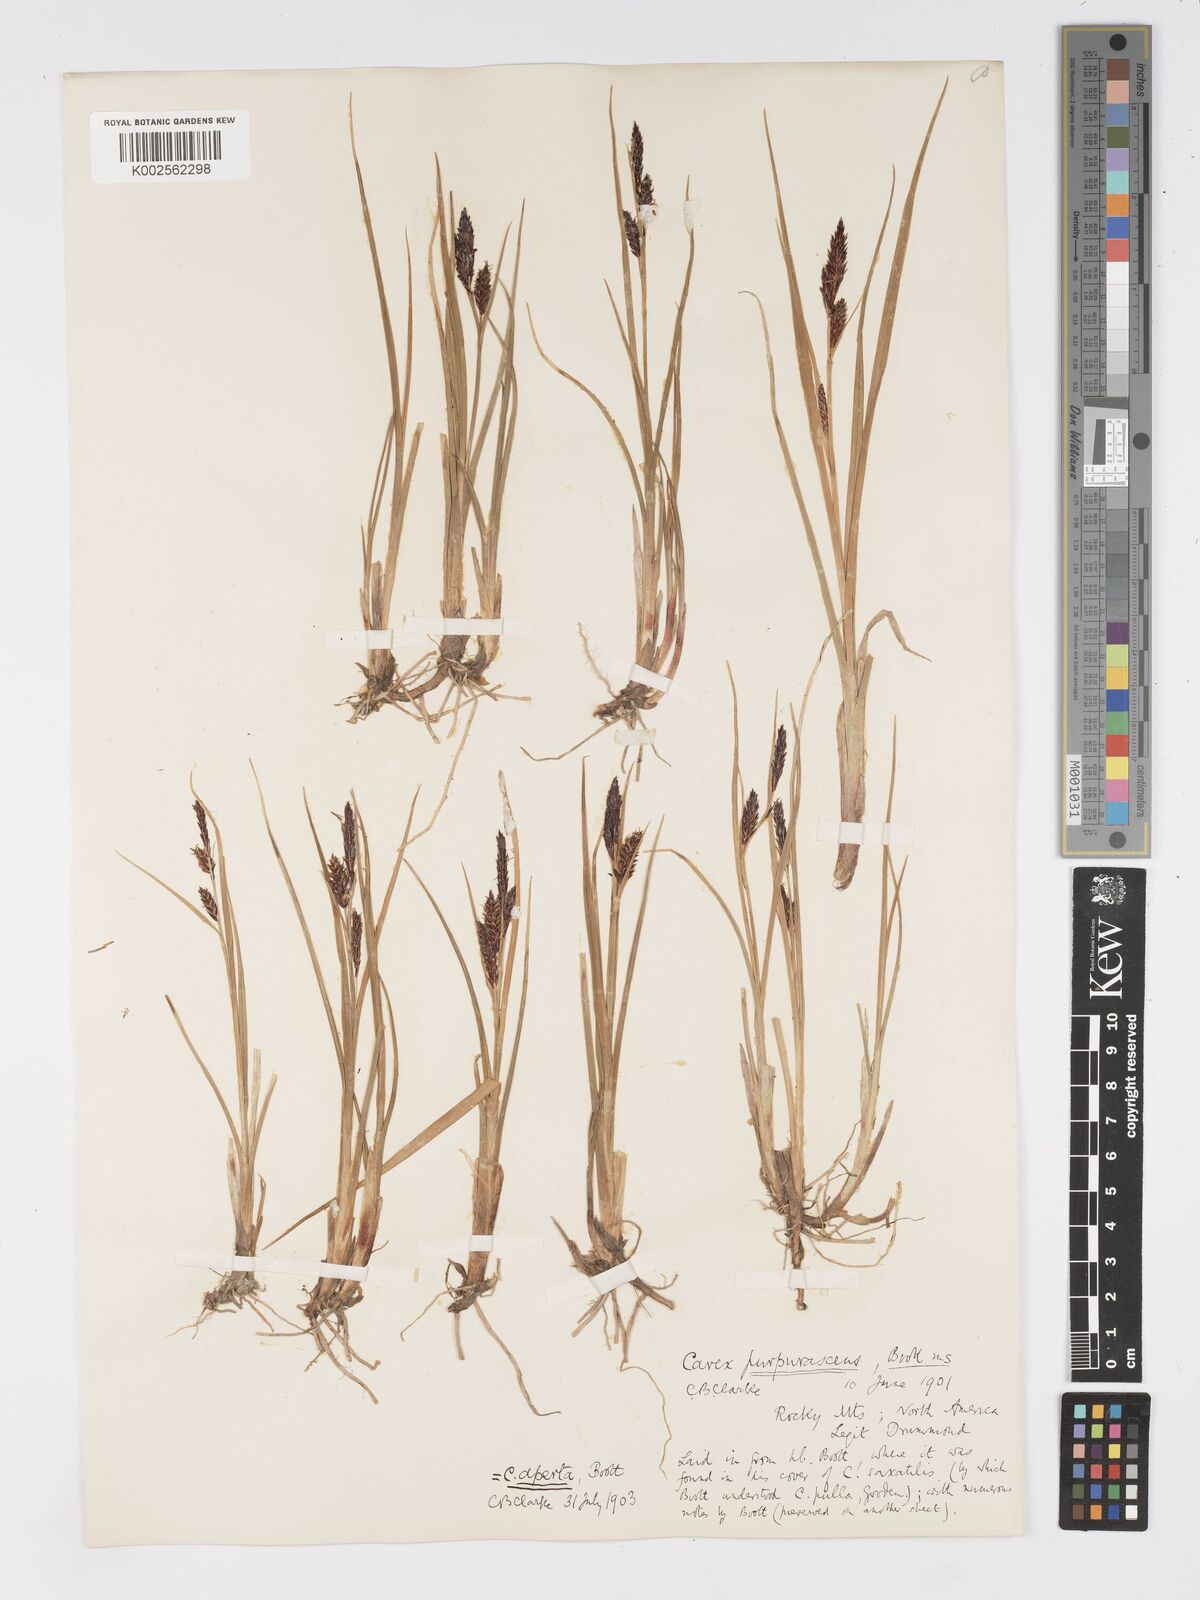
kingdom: Plantae
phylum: Tracheophyta
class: Liliopsida
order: Poales
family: Cyperaceae
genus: Carex
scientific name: Carex aperta
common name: Columbia sedge
